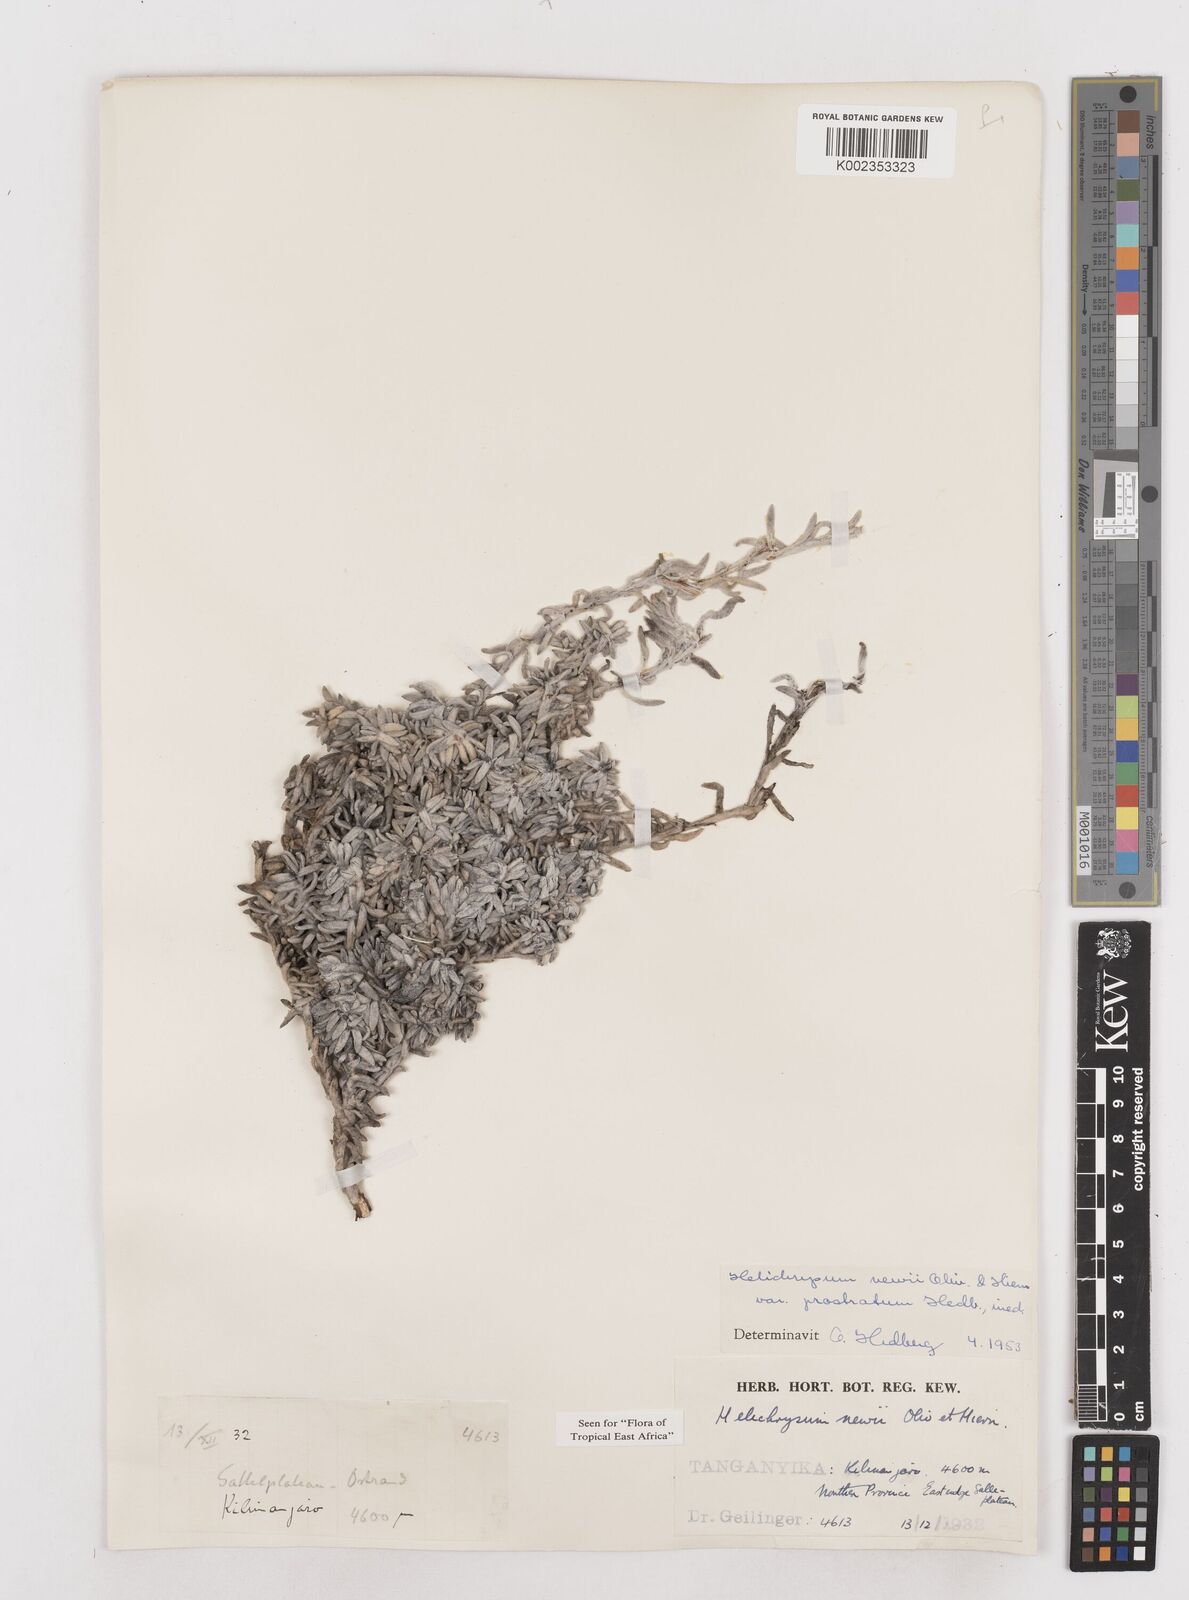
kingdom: Plantae
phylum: Tracheophyta
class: Magnoliopsida
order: Asterales
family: Asteraceae
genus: Helichrysum
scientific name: Helichrysum newii
